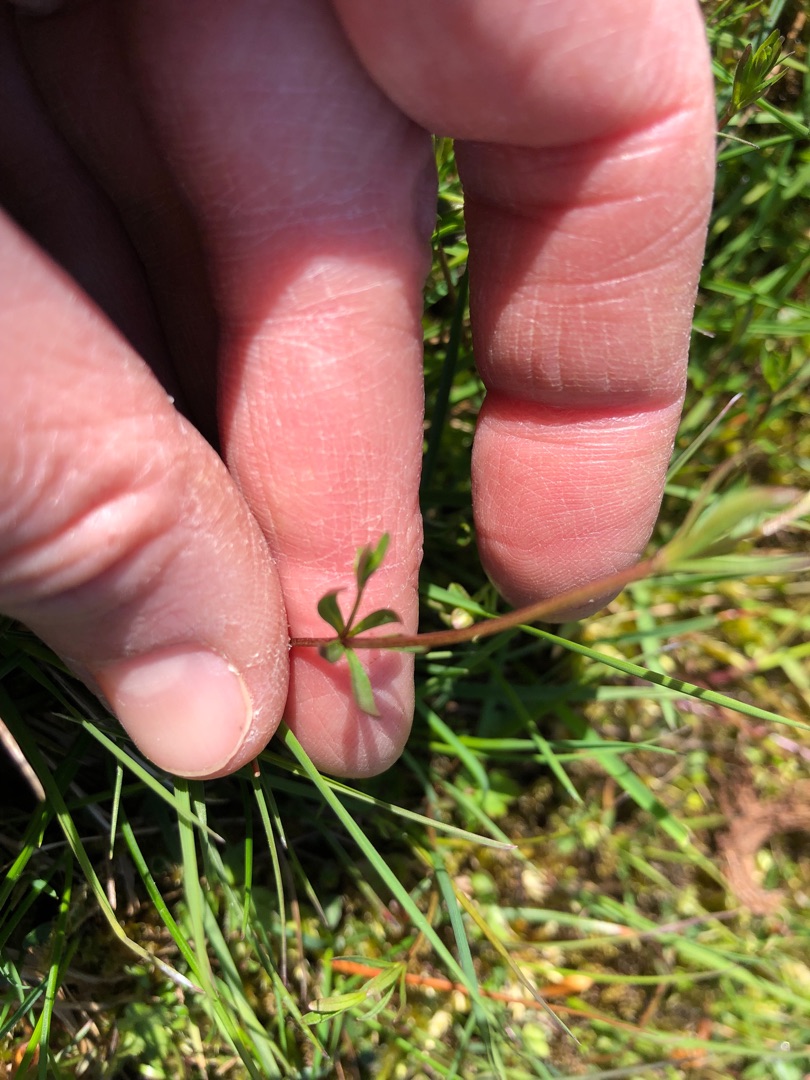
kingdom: Plantae
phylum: Tracheophyta
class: Magnoliopsida
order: Gentianales
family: Rubiaceae
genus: Galium
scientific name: Galium palustre
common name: Kær-snerre
